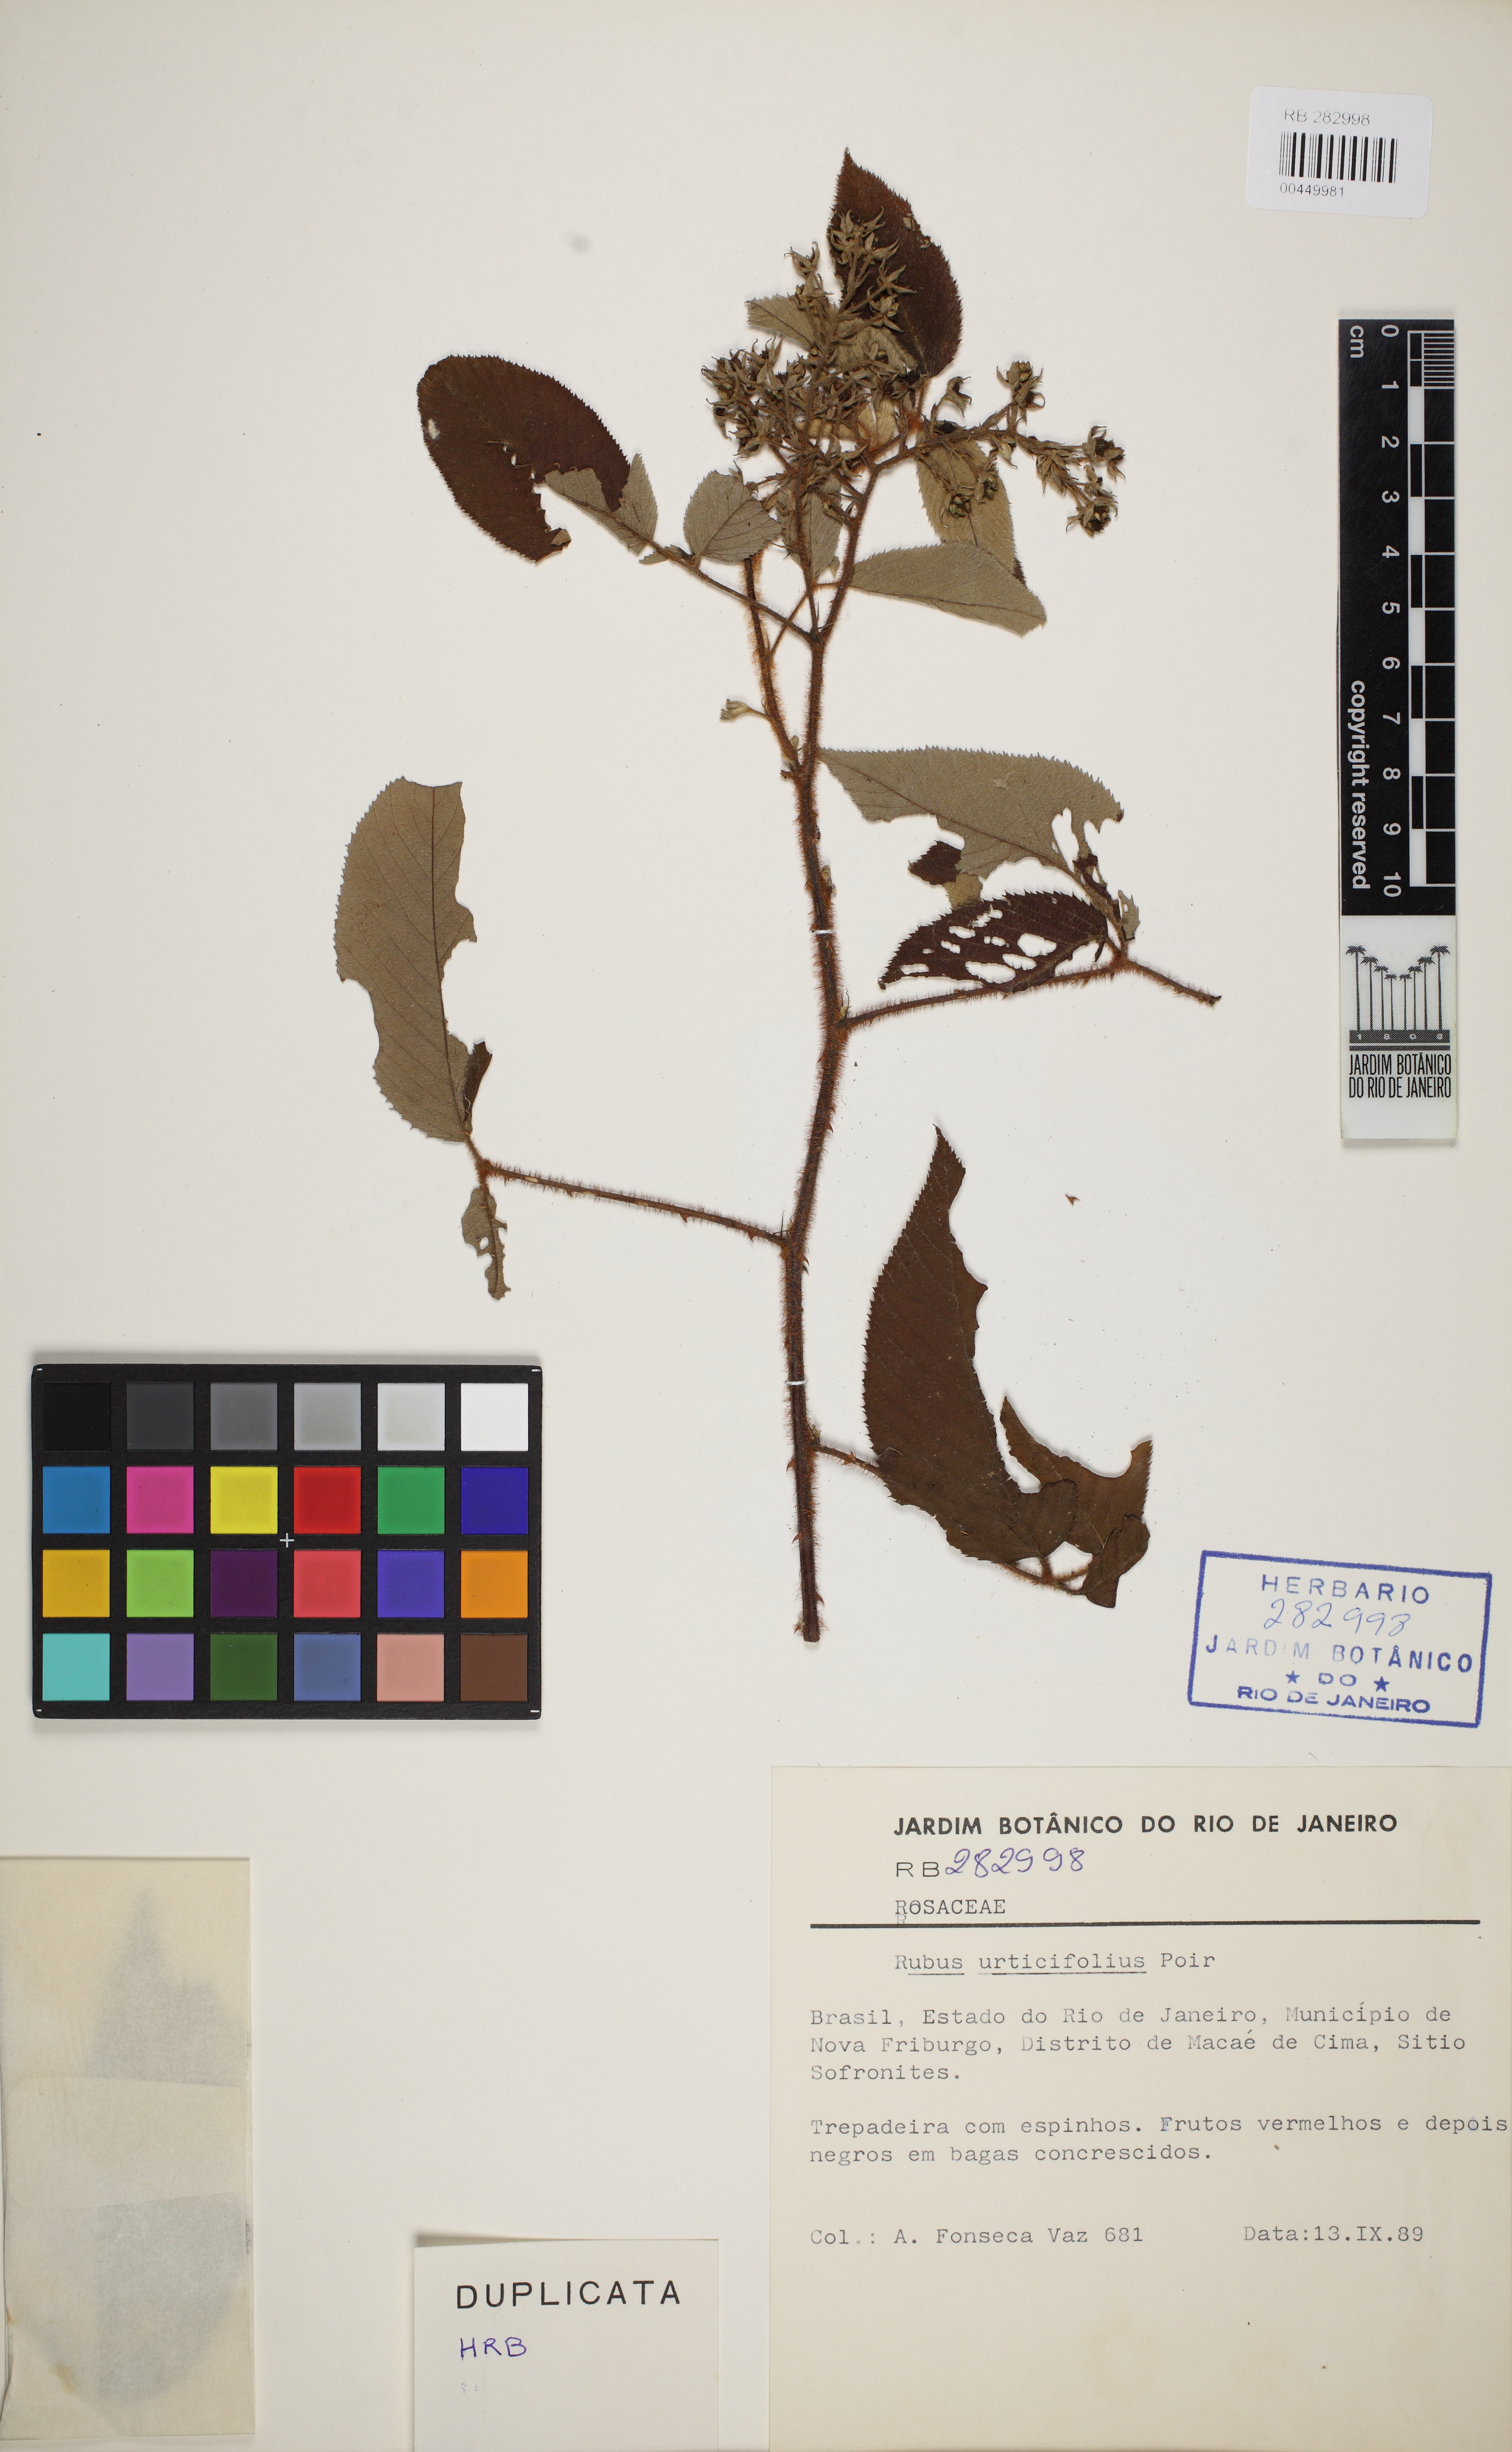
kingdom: Plantae
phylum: Tracheophyta
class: Magnoliopsida
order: Rosales
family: Rosaceae
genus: Rubus
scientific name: Rubus urticifolius
